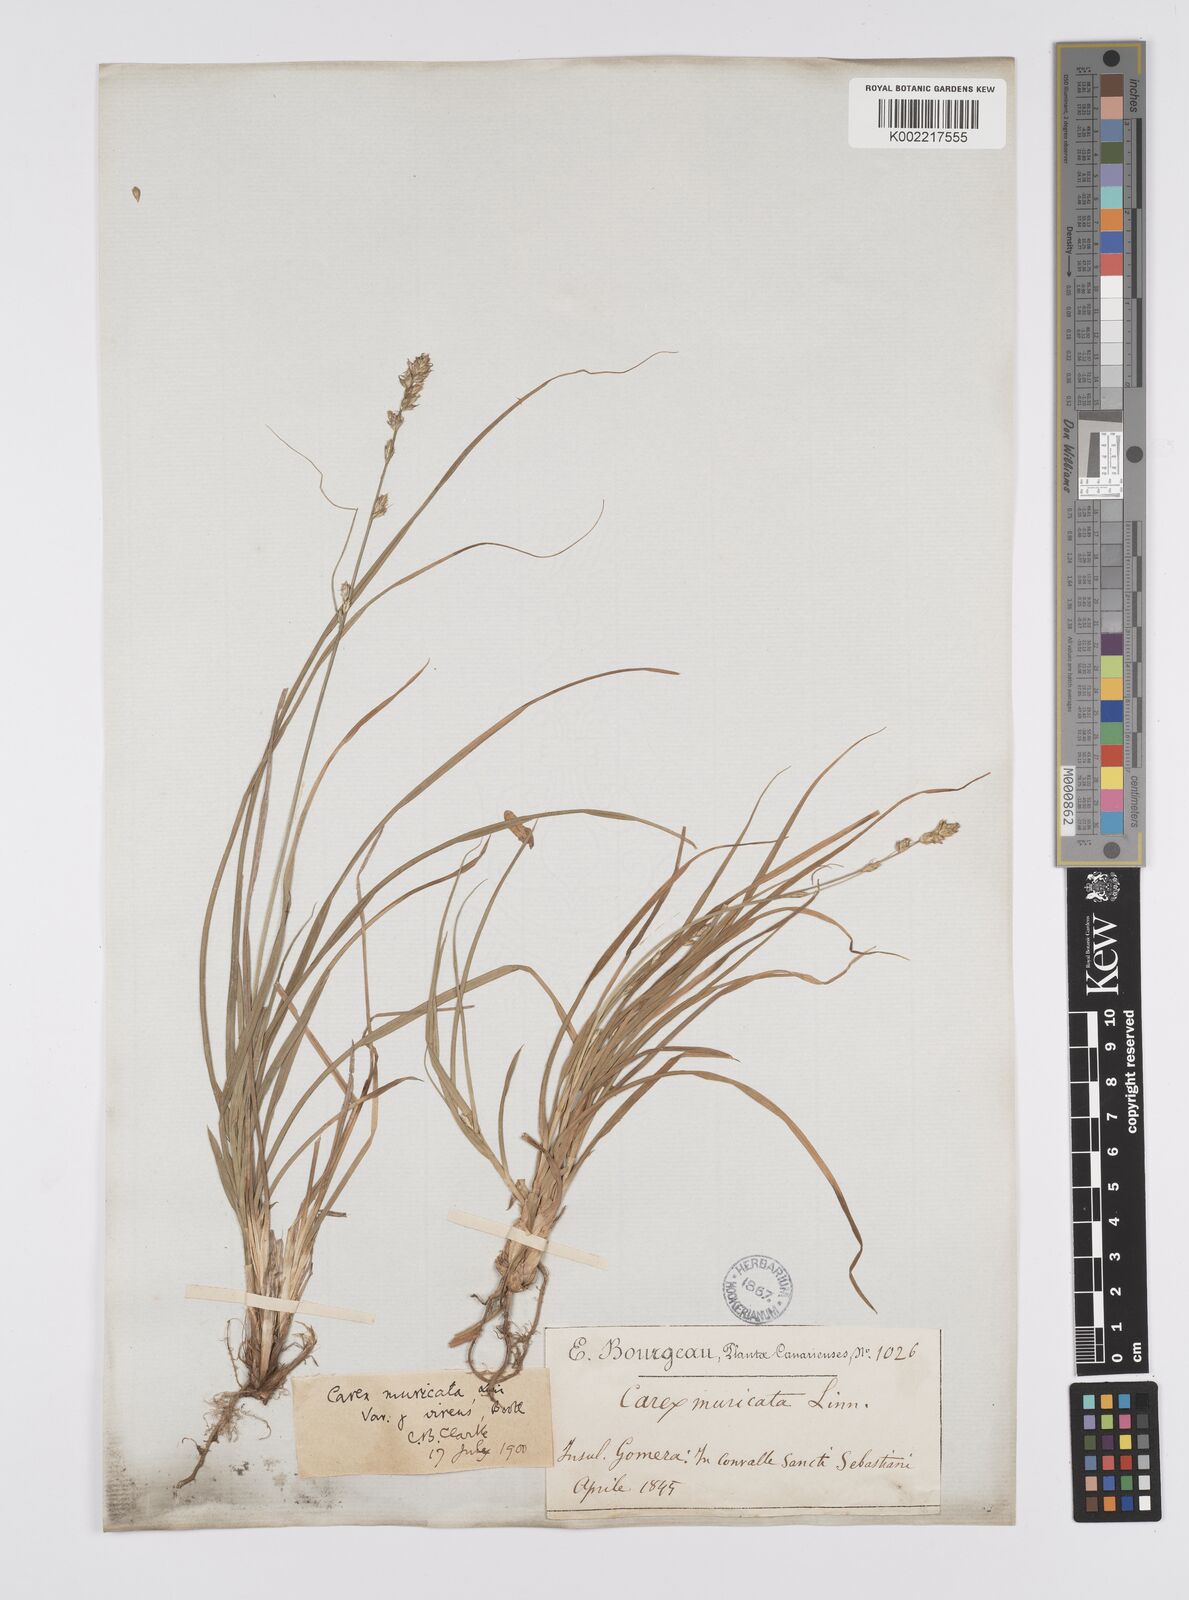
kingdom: Plantae
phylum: Tracheophyta
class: Liliopsida
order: Poales
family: Cyperaceae
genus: Carex
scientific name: Carex divulsa
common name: Grassland sedge
